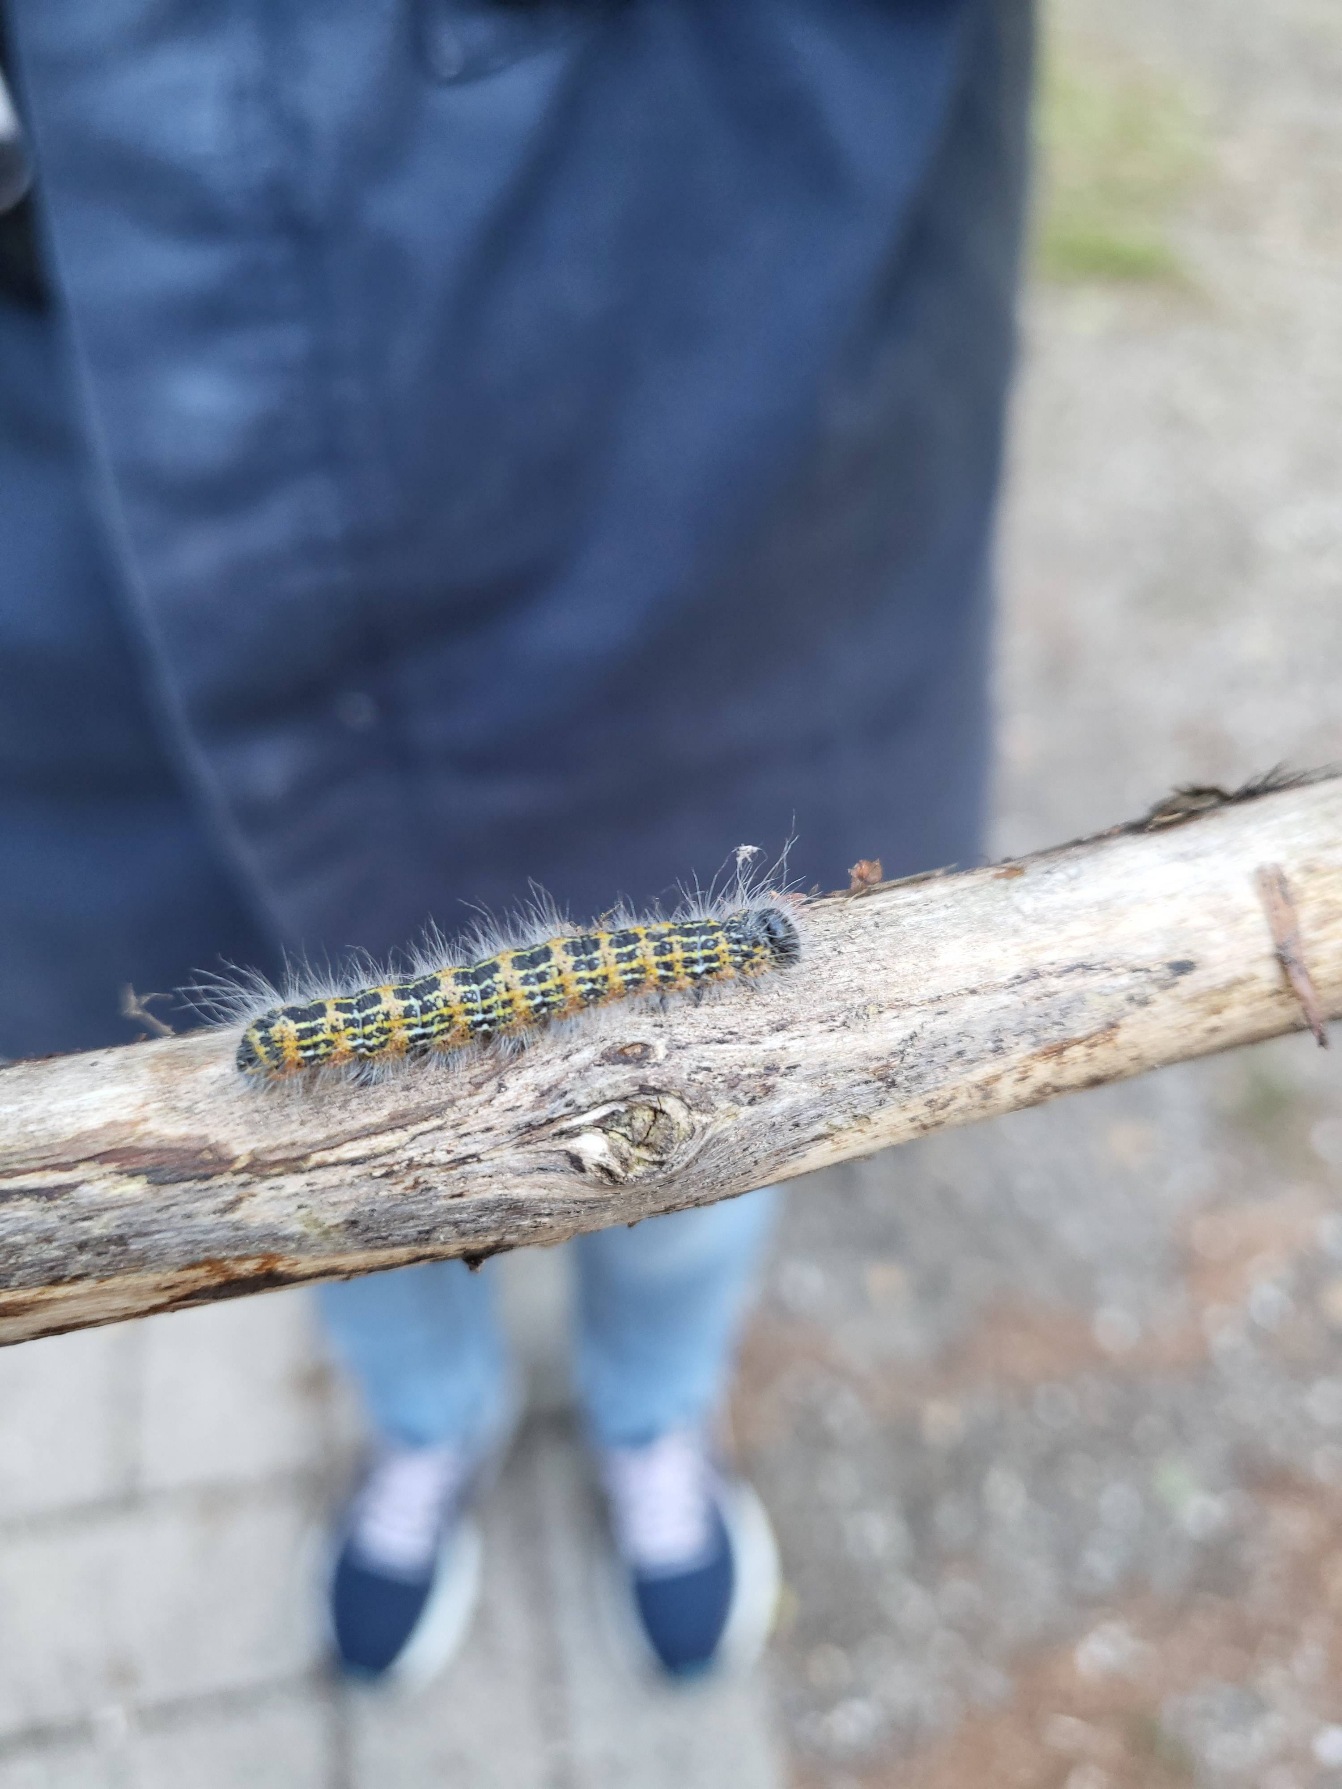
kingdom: Animalia
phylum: Arthropoda
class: Insecta
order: Lepidoptera
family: Notodontidae
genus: Phalera
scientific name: Phalera bucephala
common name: Måneplet
